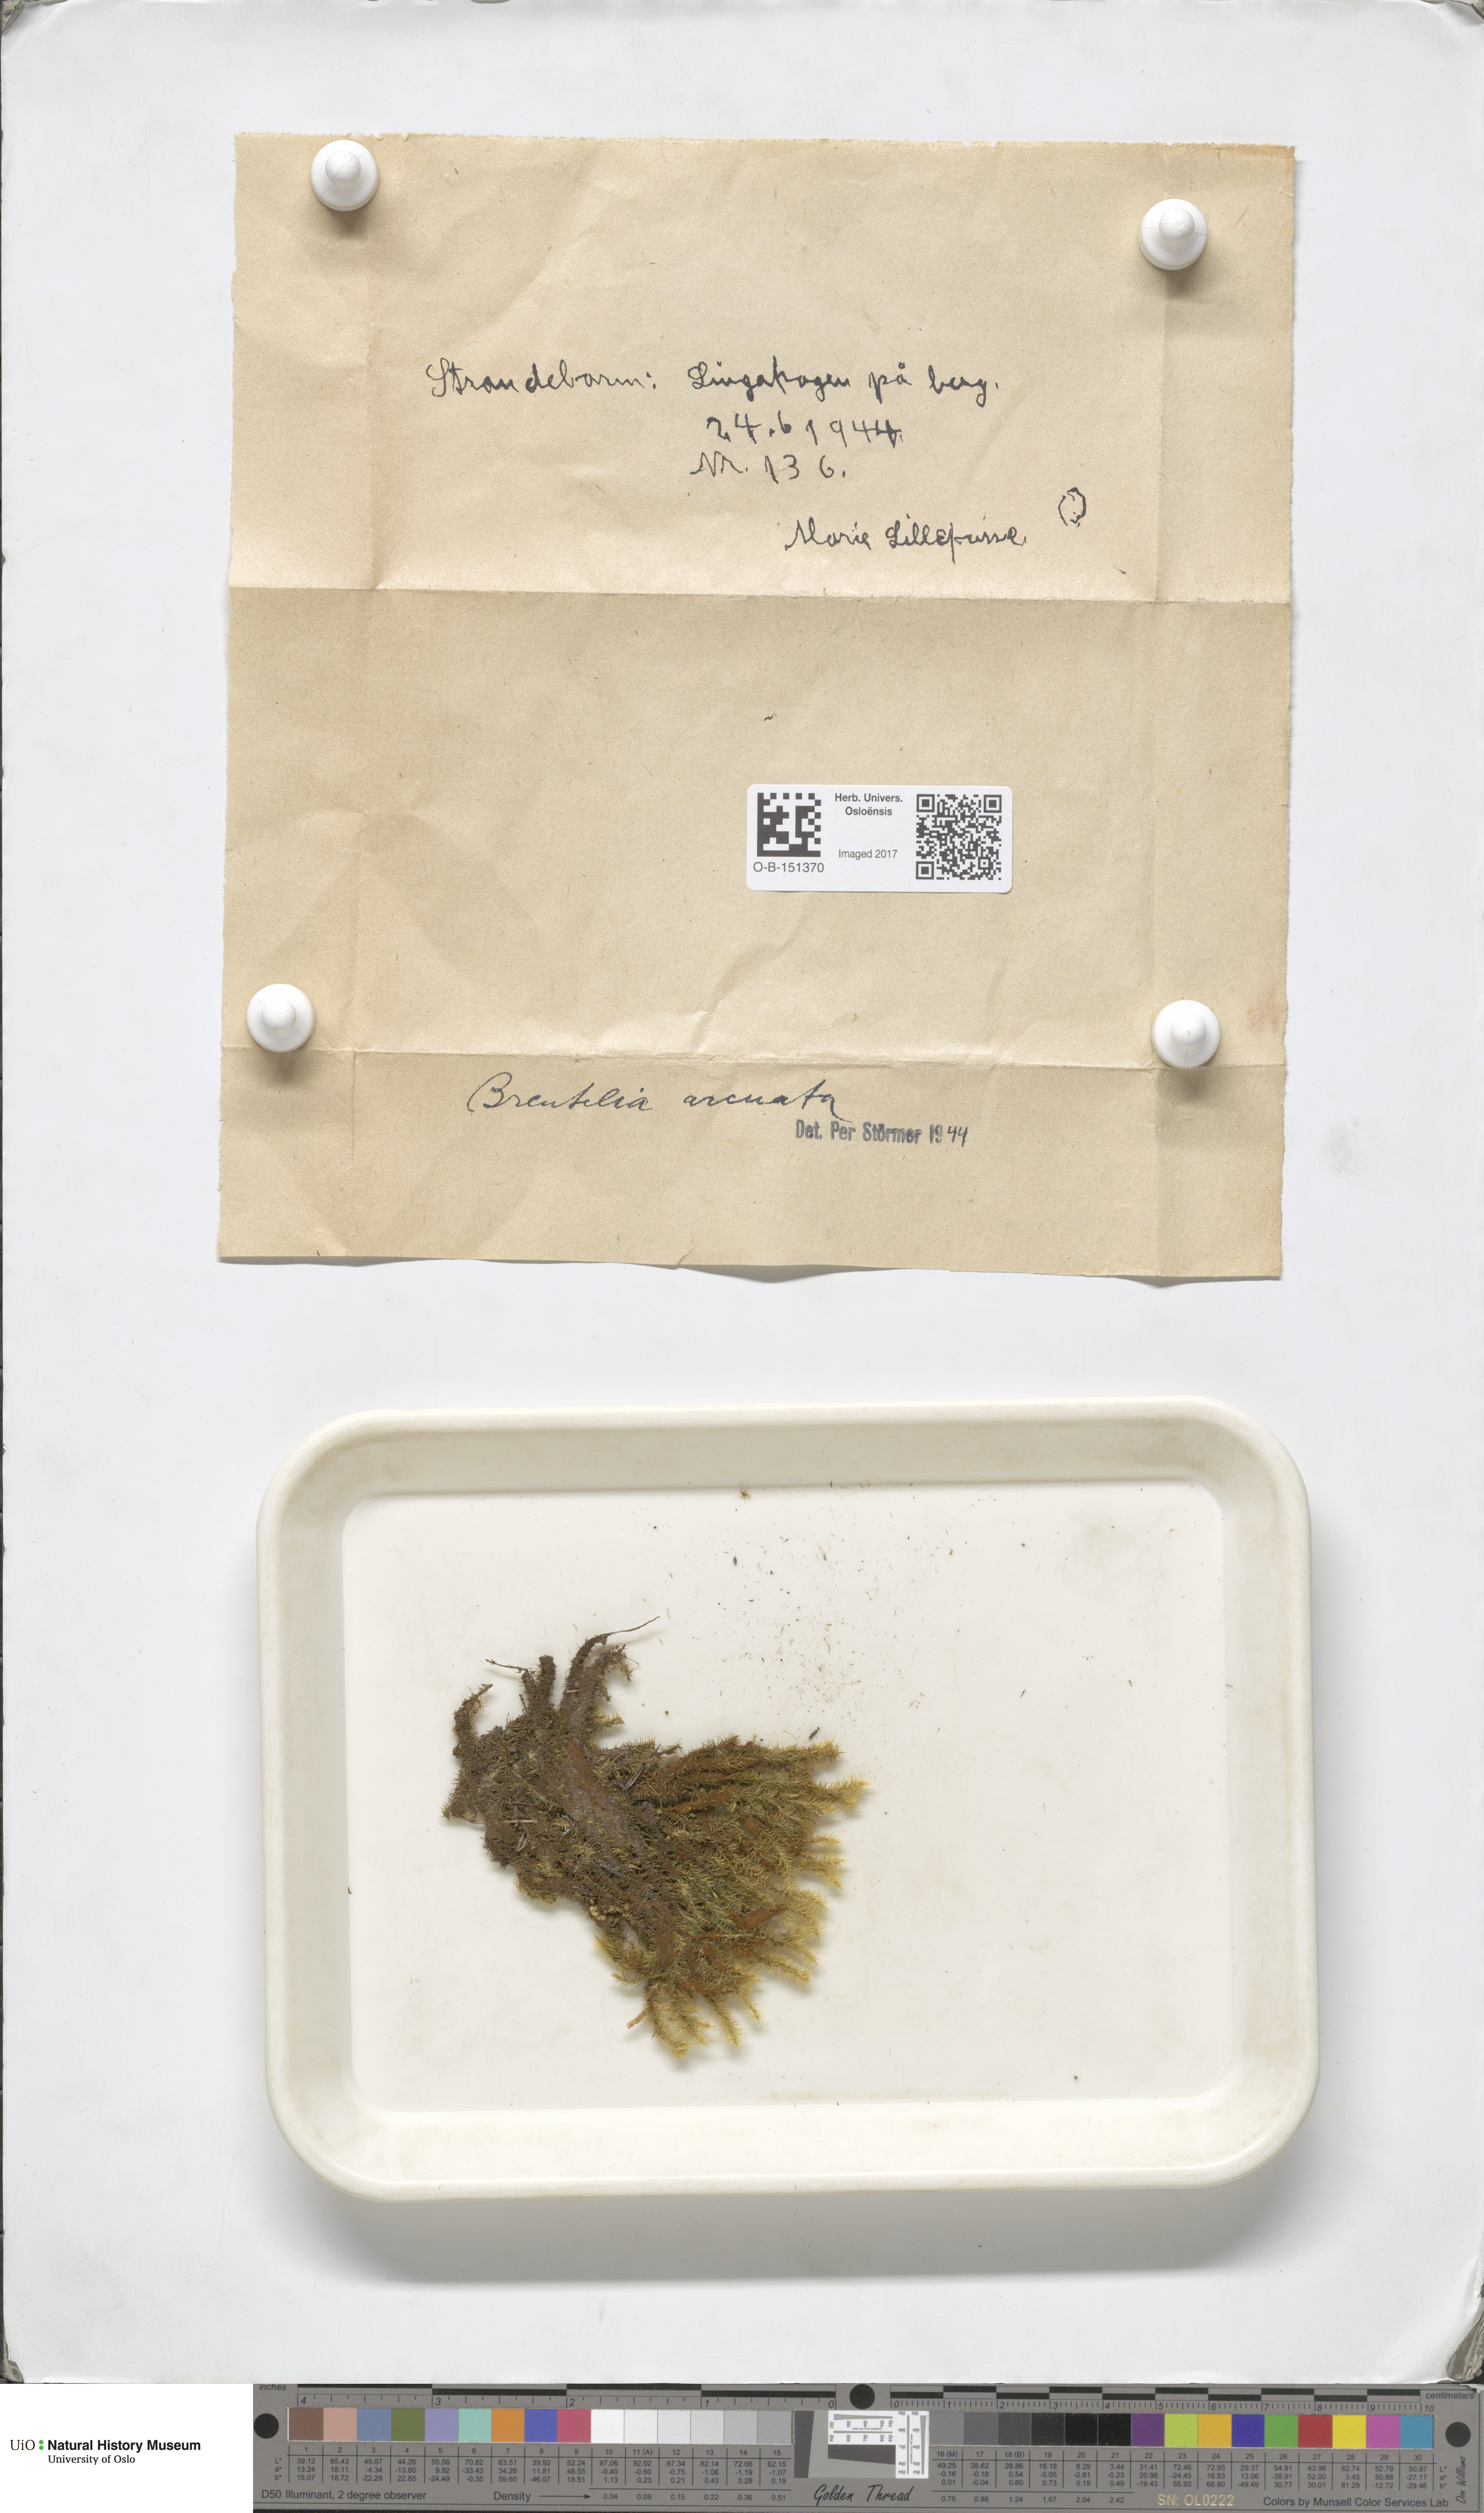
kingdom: Plantae
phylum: Bryophyta
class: Bryopsida
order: Bartramiales
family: Bartramiaceae
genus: Breutelia
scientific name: Breutelia chrysocoma
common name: Bottle-brush moss
